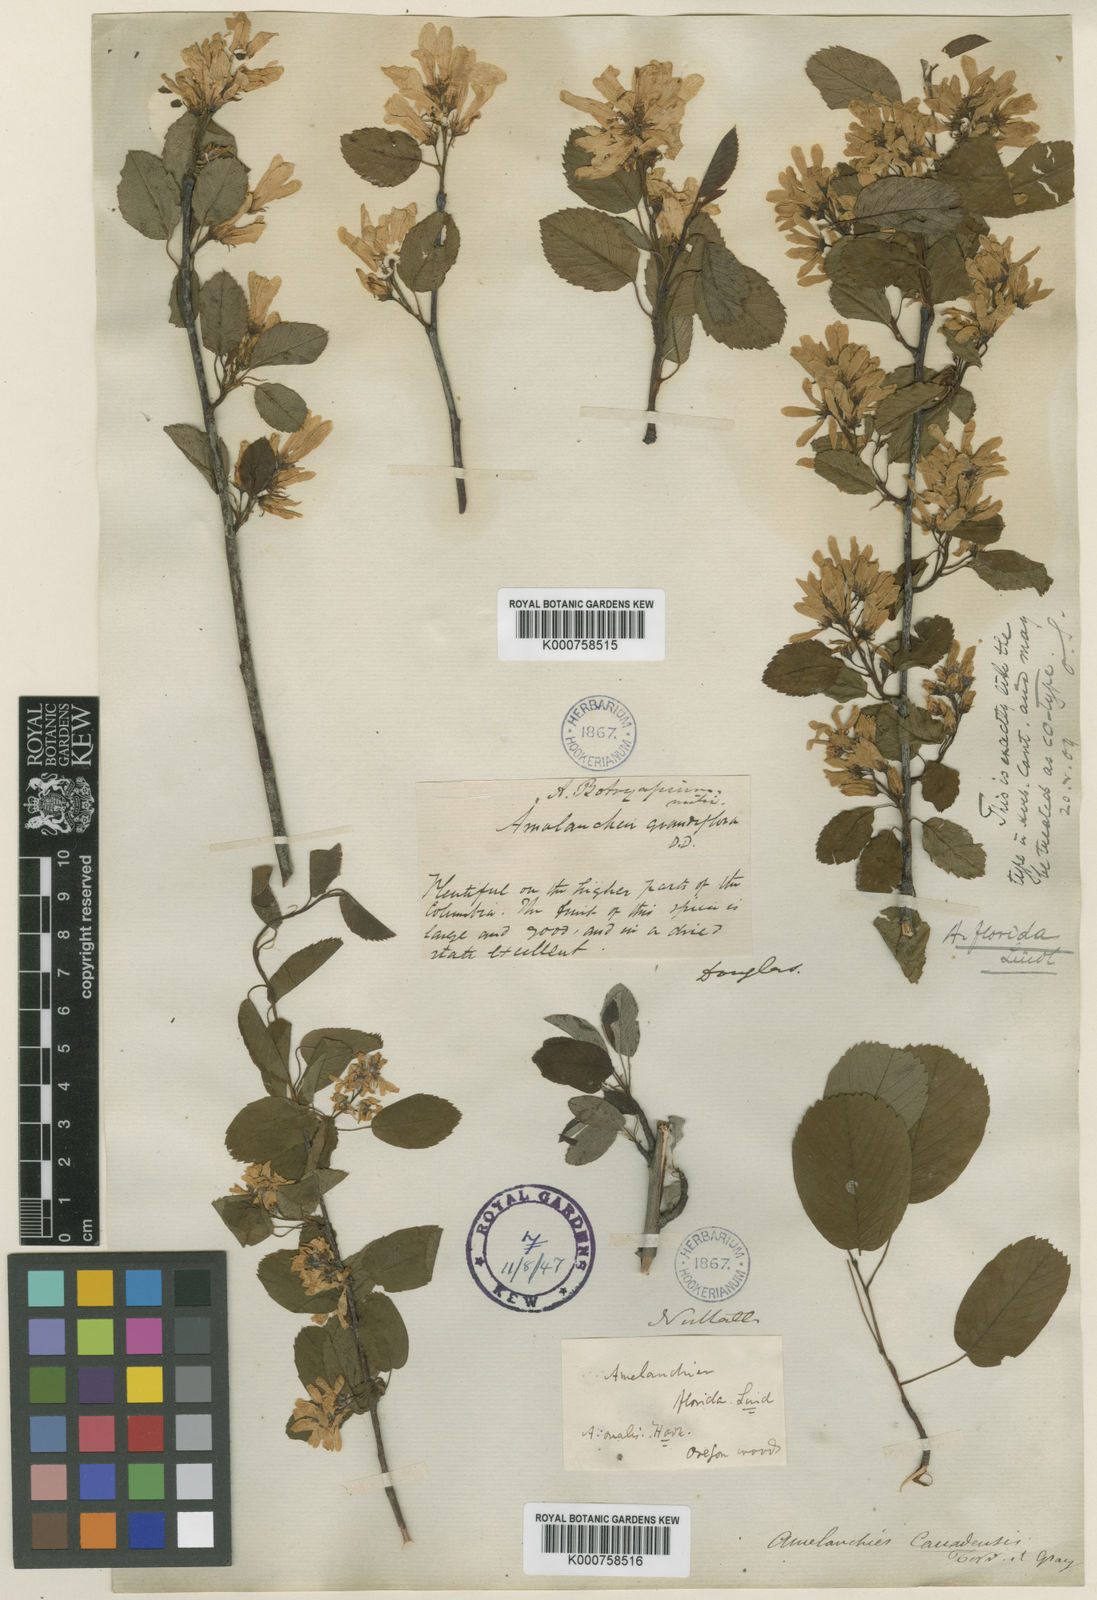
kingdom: Plantae
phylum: Tracheophyta
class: Magnoliopsida
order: Rosales
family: Rosaceae
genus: Amelanchier
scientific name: Amelanchier alnifolia
